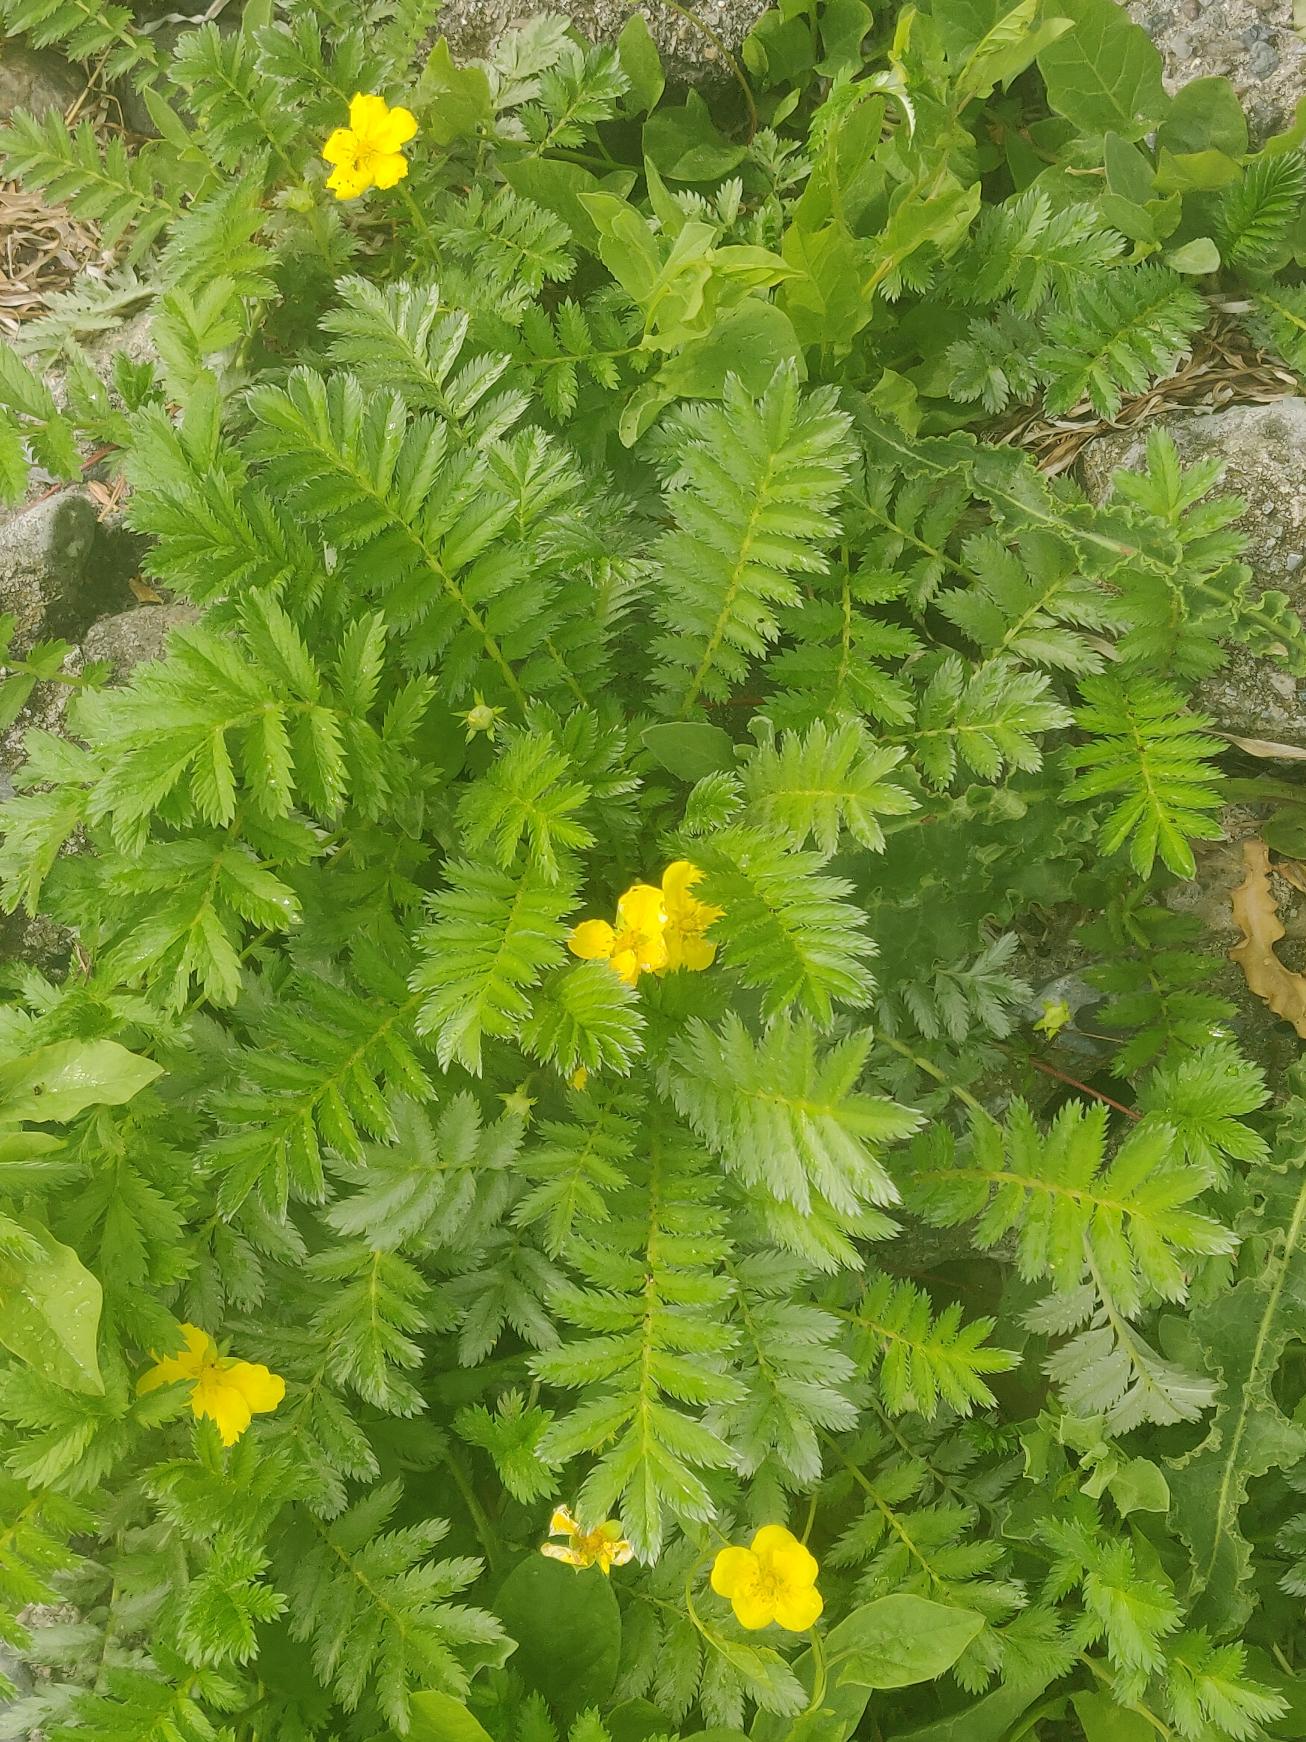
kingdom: Plantae
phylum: Tracheophyta
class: Magnoliopsida
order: Rosales
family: Rosaceae
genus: Argentina
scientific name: Argentina anserina
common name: Gåsepotentil
